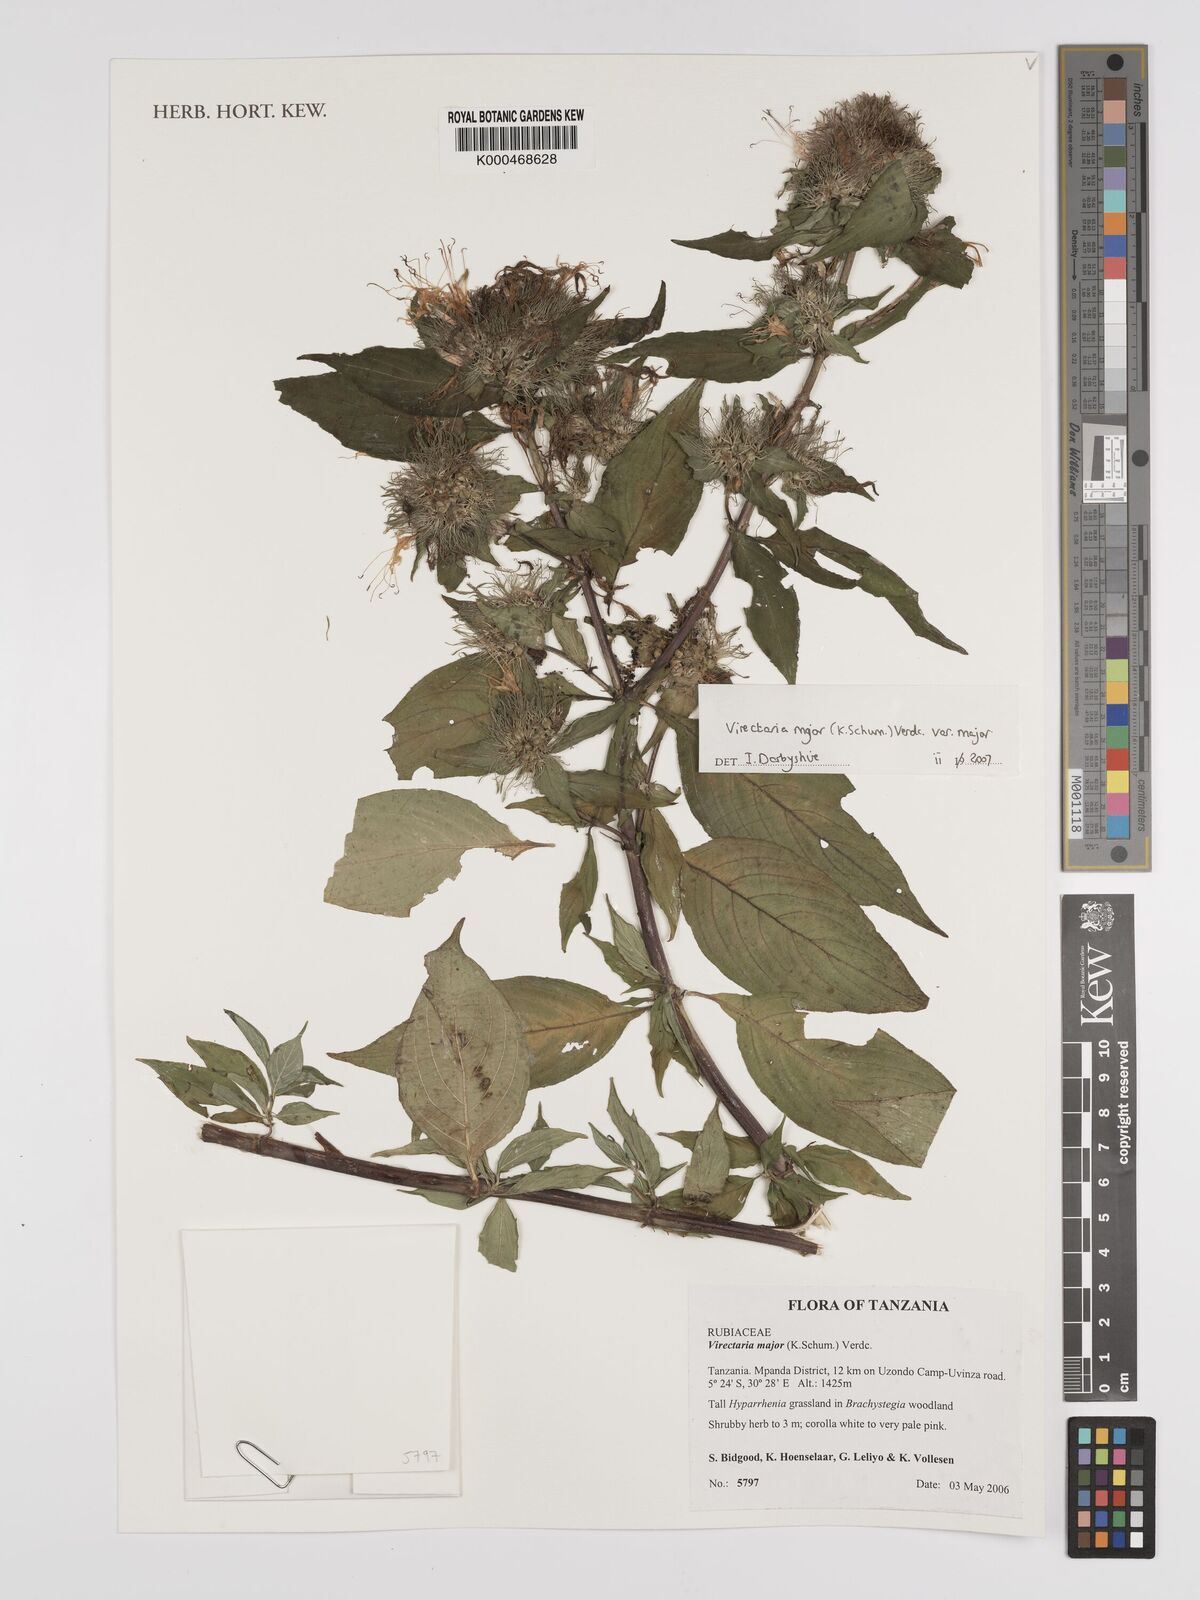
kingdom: Plantae
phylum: Tracheophyta
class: Magnoliopsida
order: Gentianales
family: Rubiaceae
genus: Virectaria
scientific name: Virectaria major
